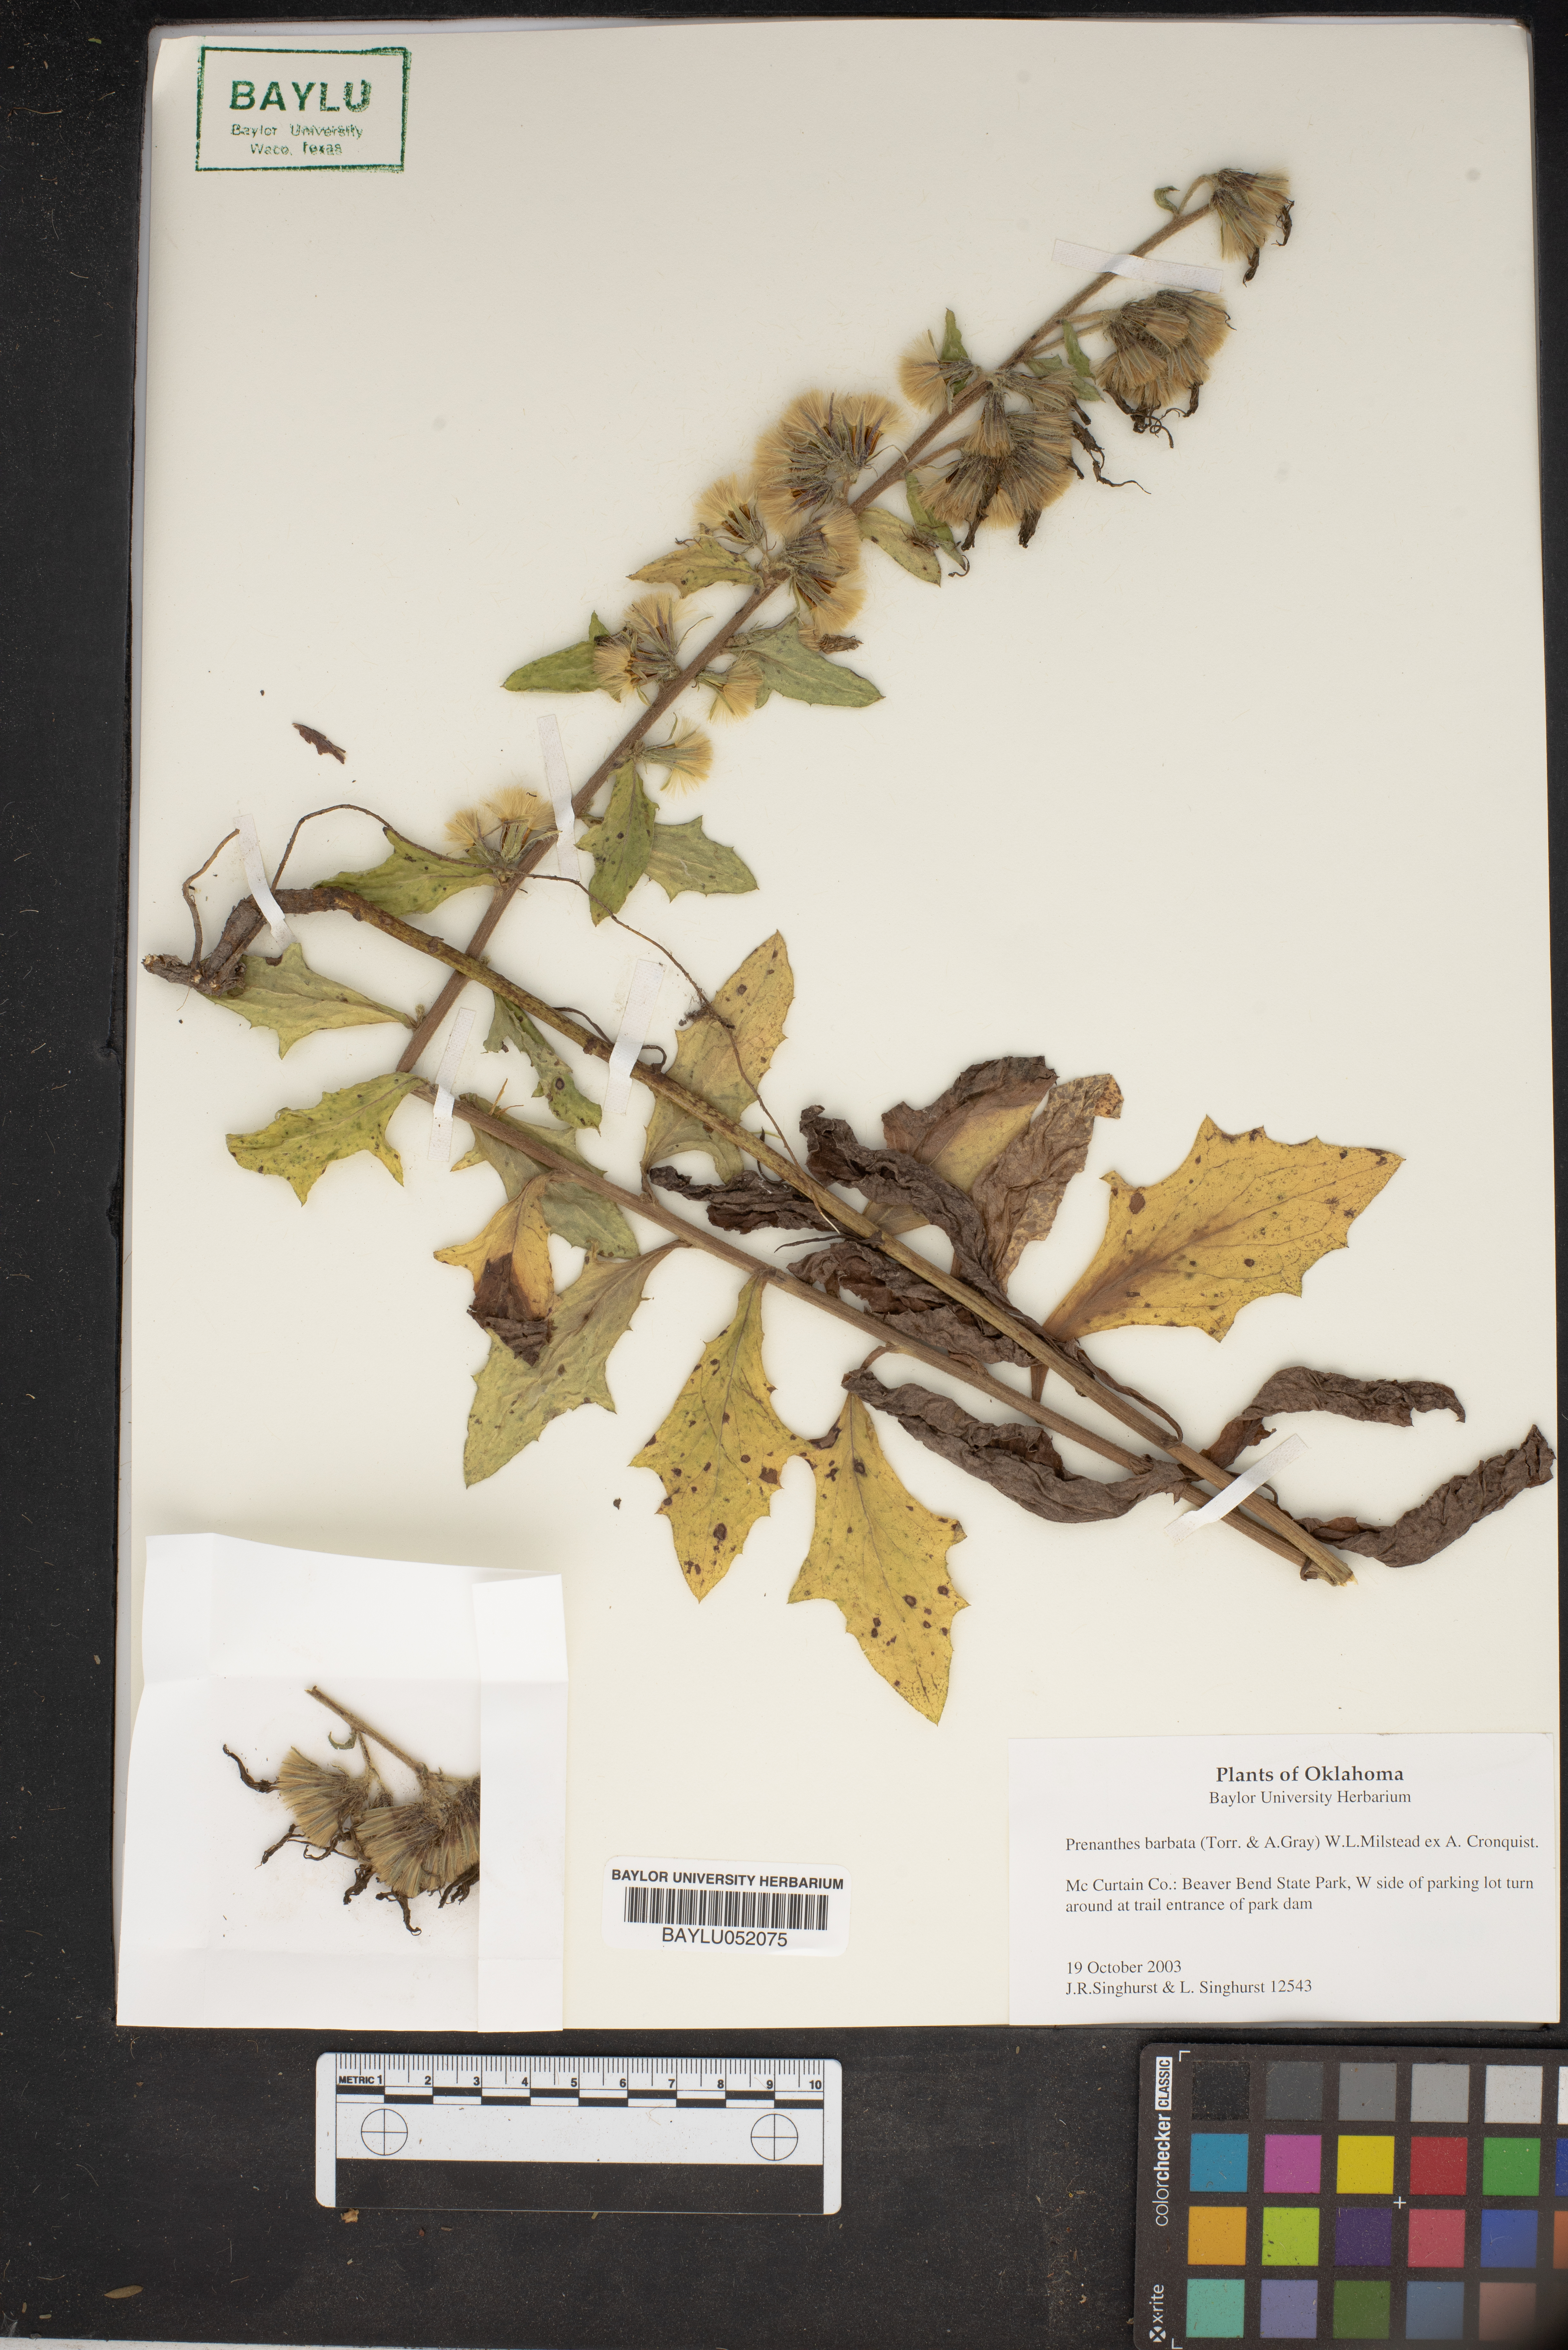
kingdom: Plantae
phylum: Tracheophyta
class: Magnoliopsida
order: Asterales
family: Asteraceae
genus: Nabalus
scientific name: Nabalus barbata
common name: Barbed rattlesnakeroot
